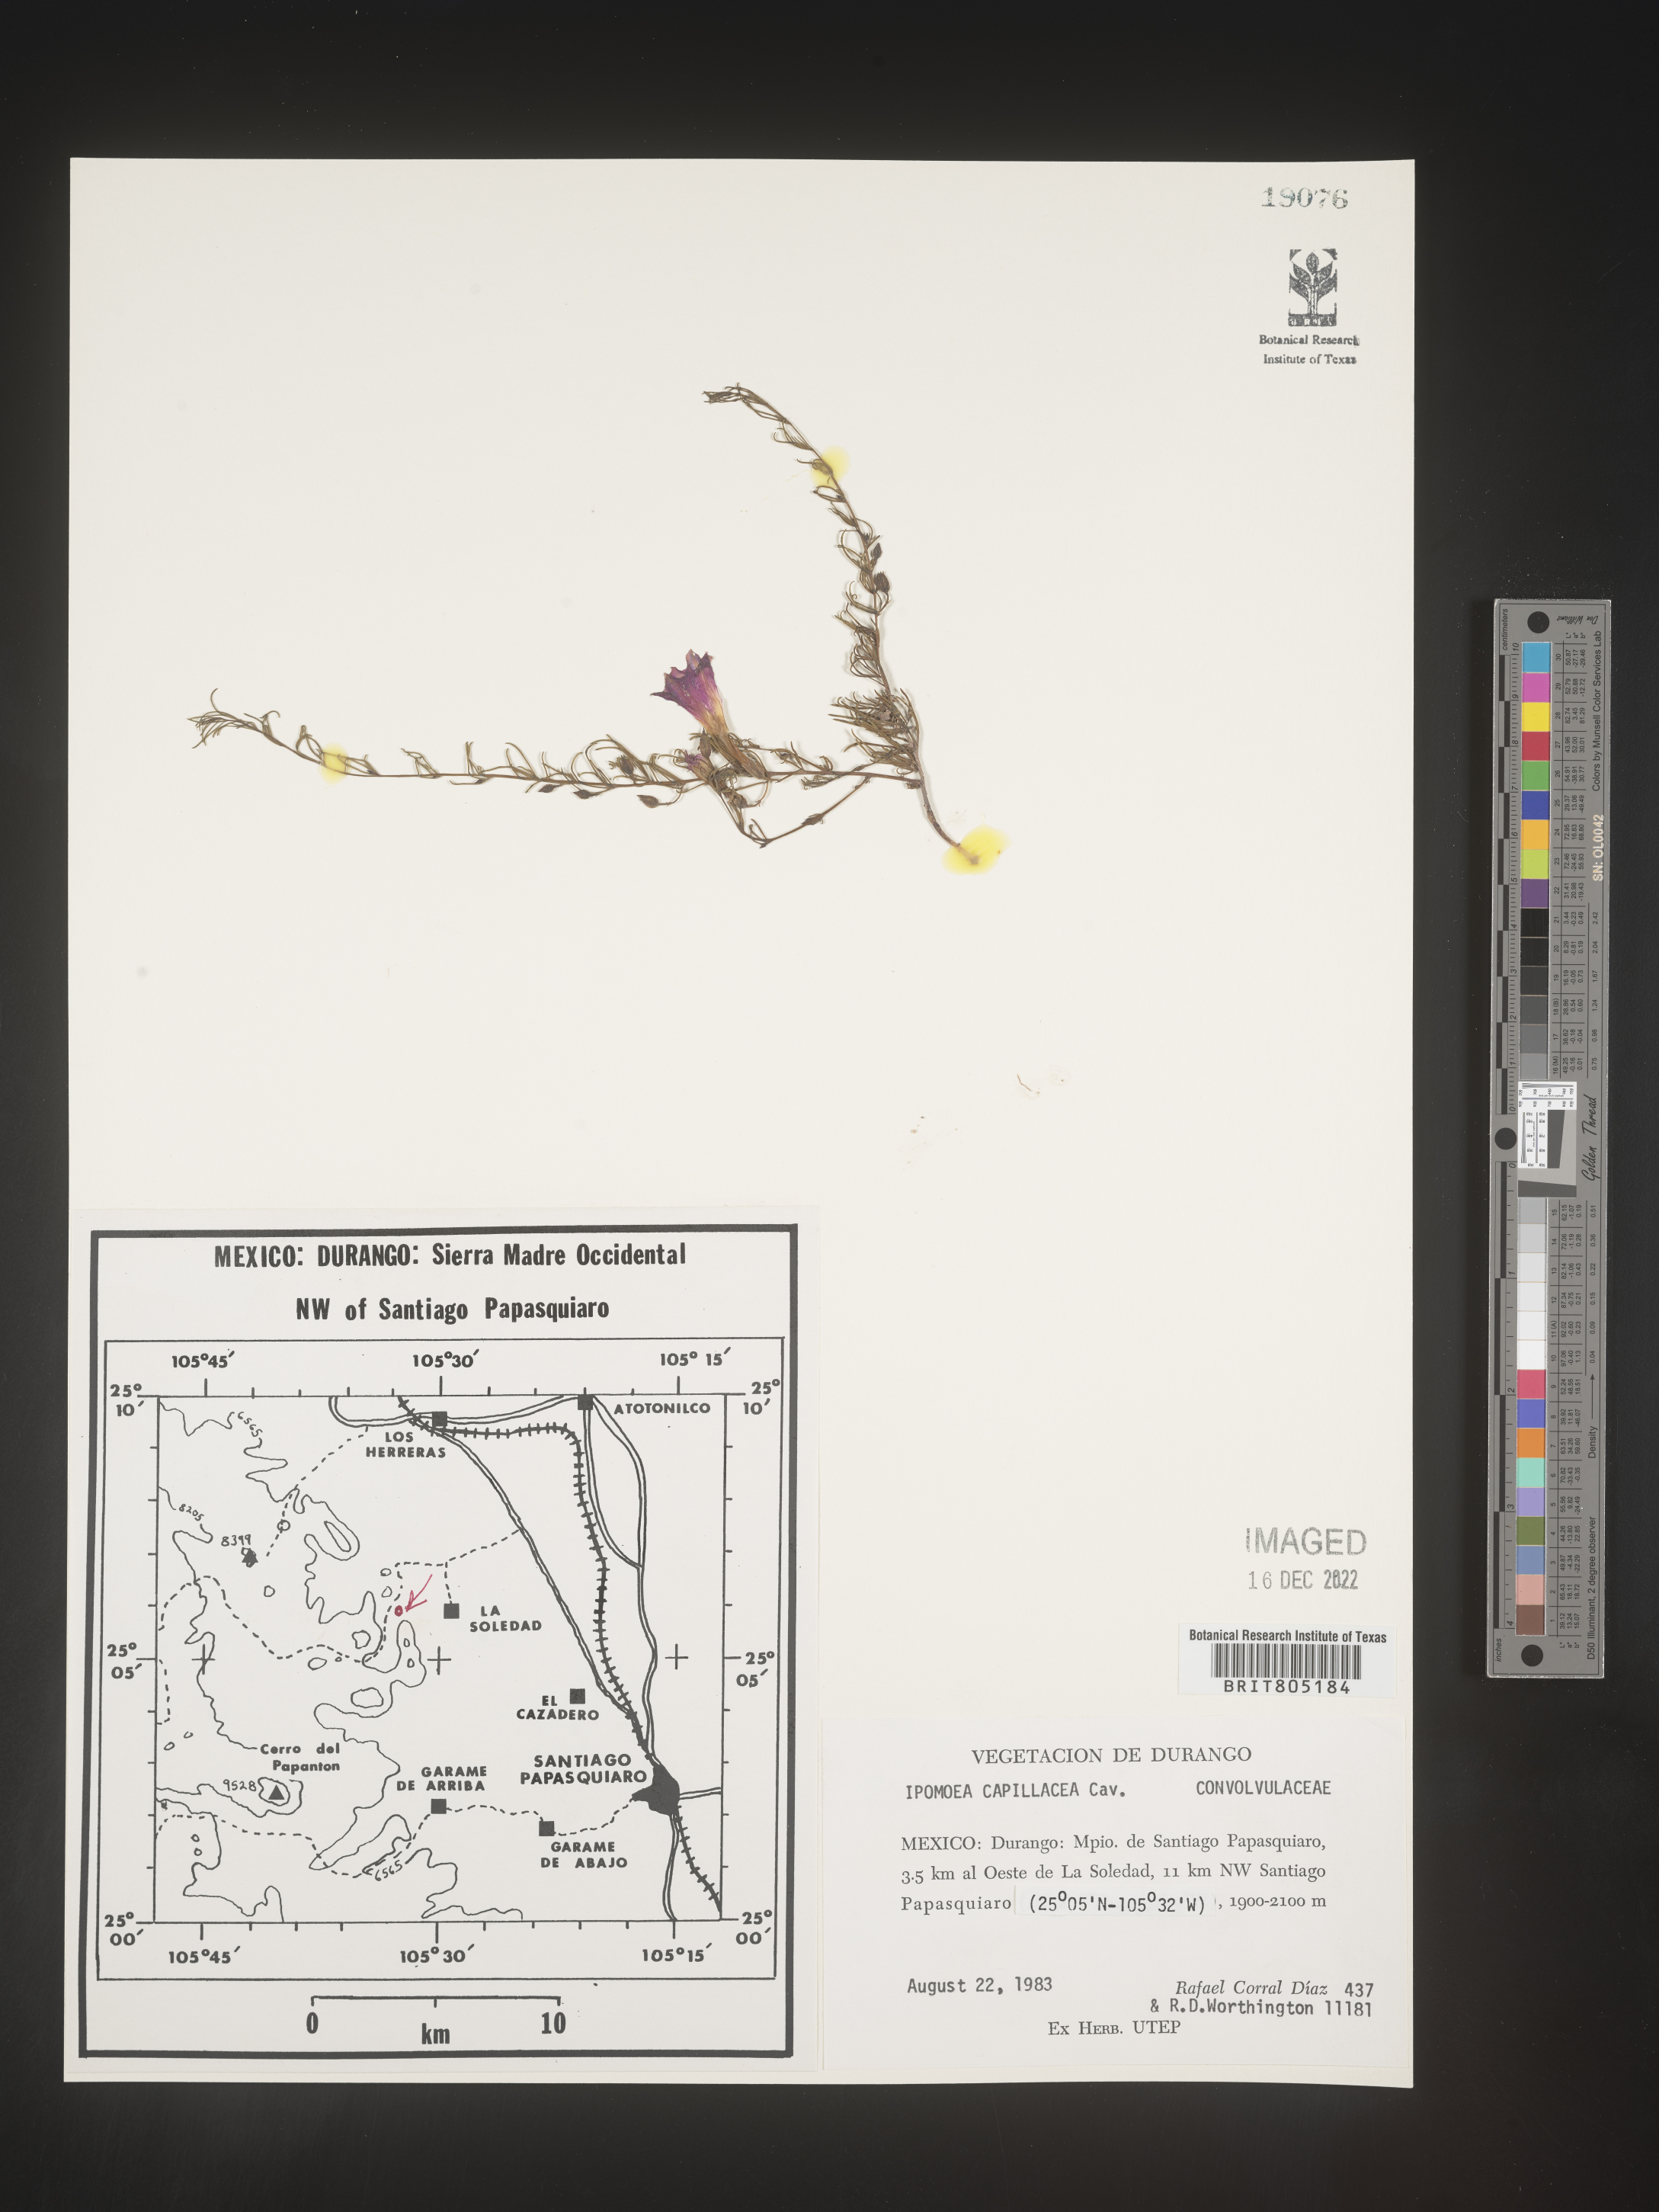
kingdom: Plantae
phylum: Tracheophyta
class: Magnoliopsida
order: Solanales
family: Convolvulaceae
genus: Ipomoea
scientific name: Ipomoea
